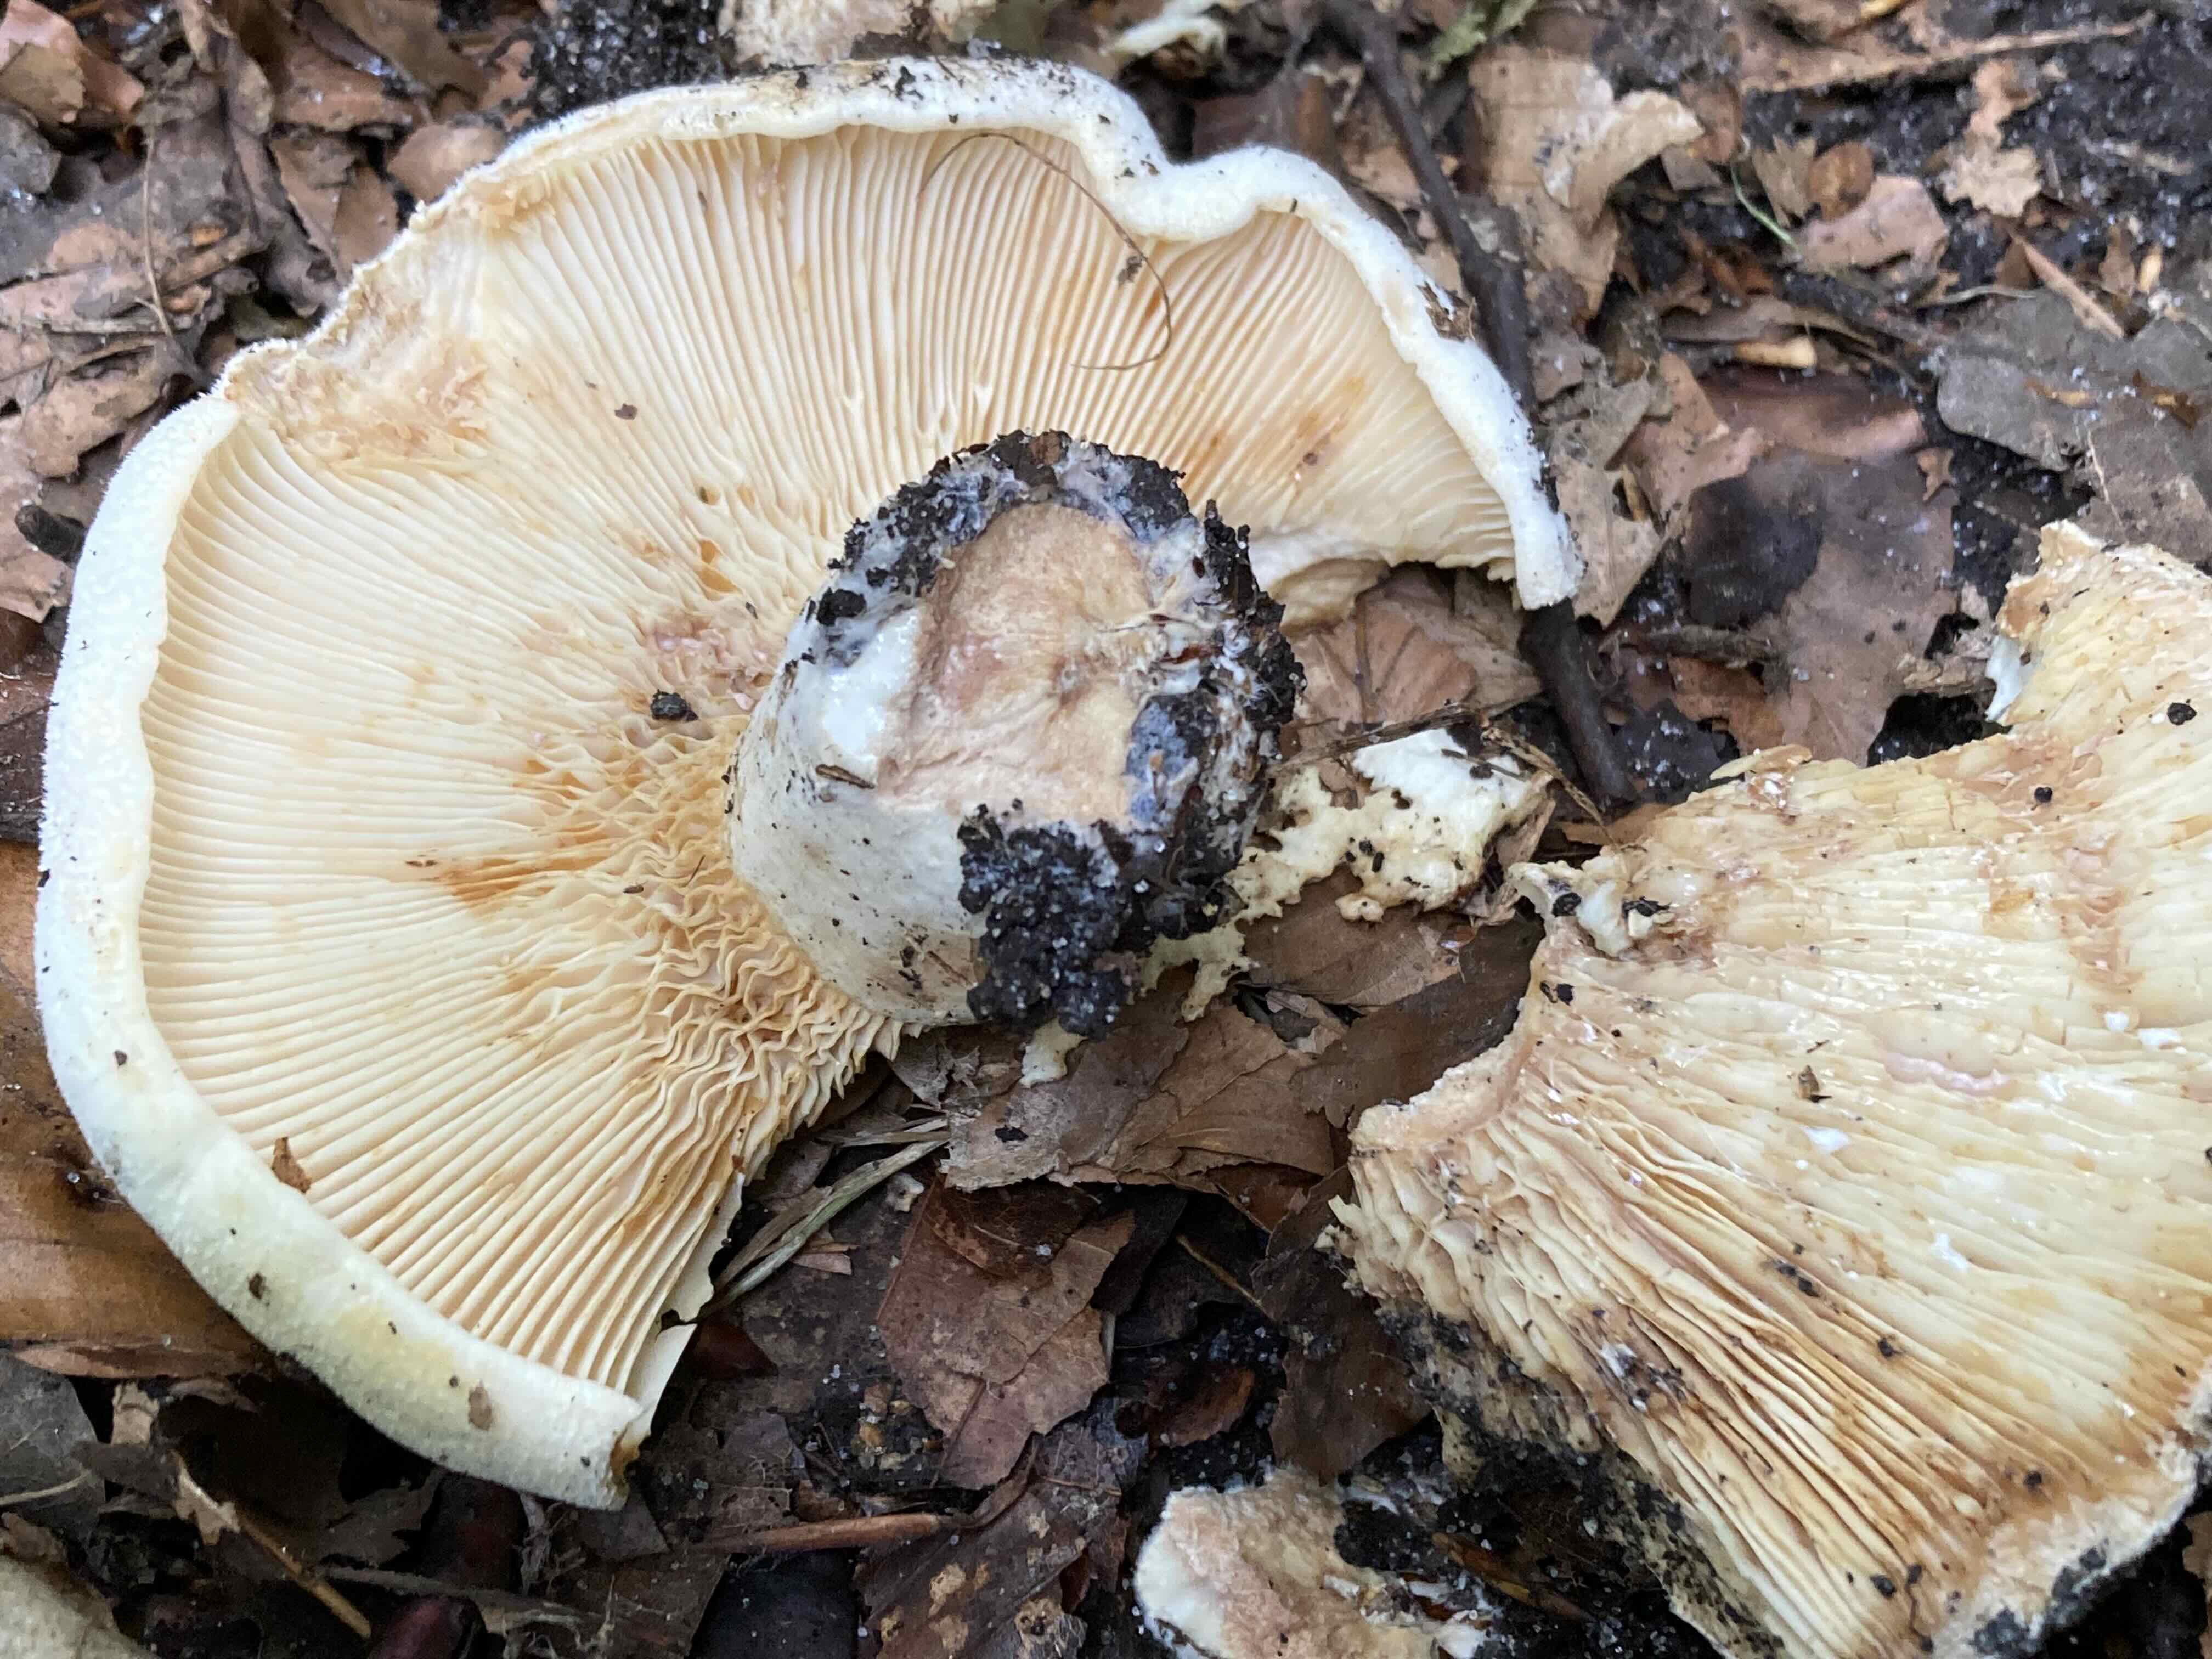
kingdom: Fungi
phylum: Basidiomycota
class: Agaricomycetes
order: Russulales
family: Russulaceae
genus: Lactifluus
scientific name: Lactifluus vellereus
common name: hvidfiltet mælkehat
